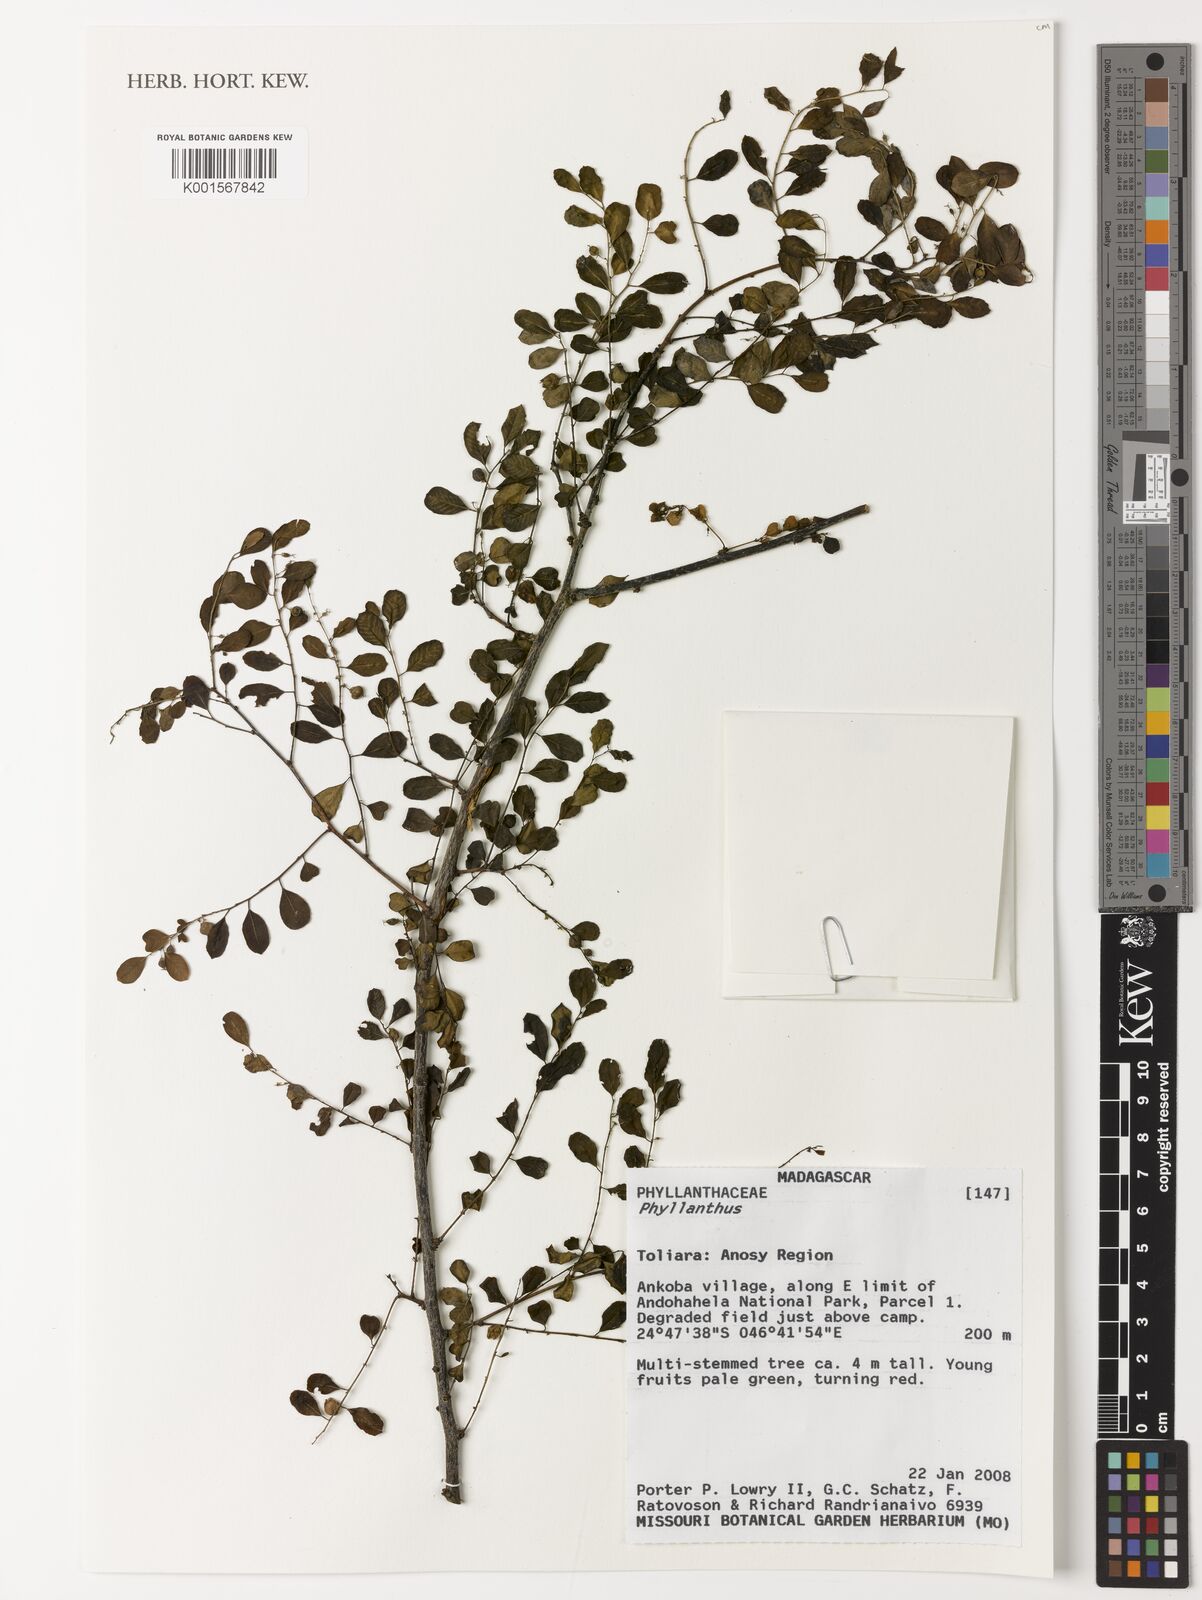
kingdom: Plantae
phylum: Tracheophyta
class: Magnoliopsida
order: Malpighiales
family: Phyllanthaceae
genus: Phyllanthus
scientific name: Phyllanthus
